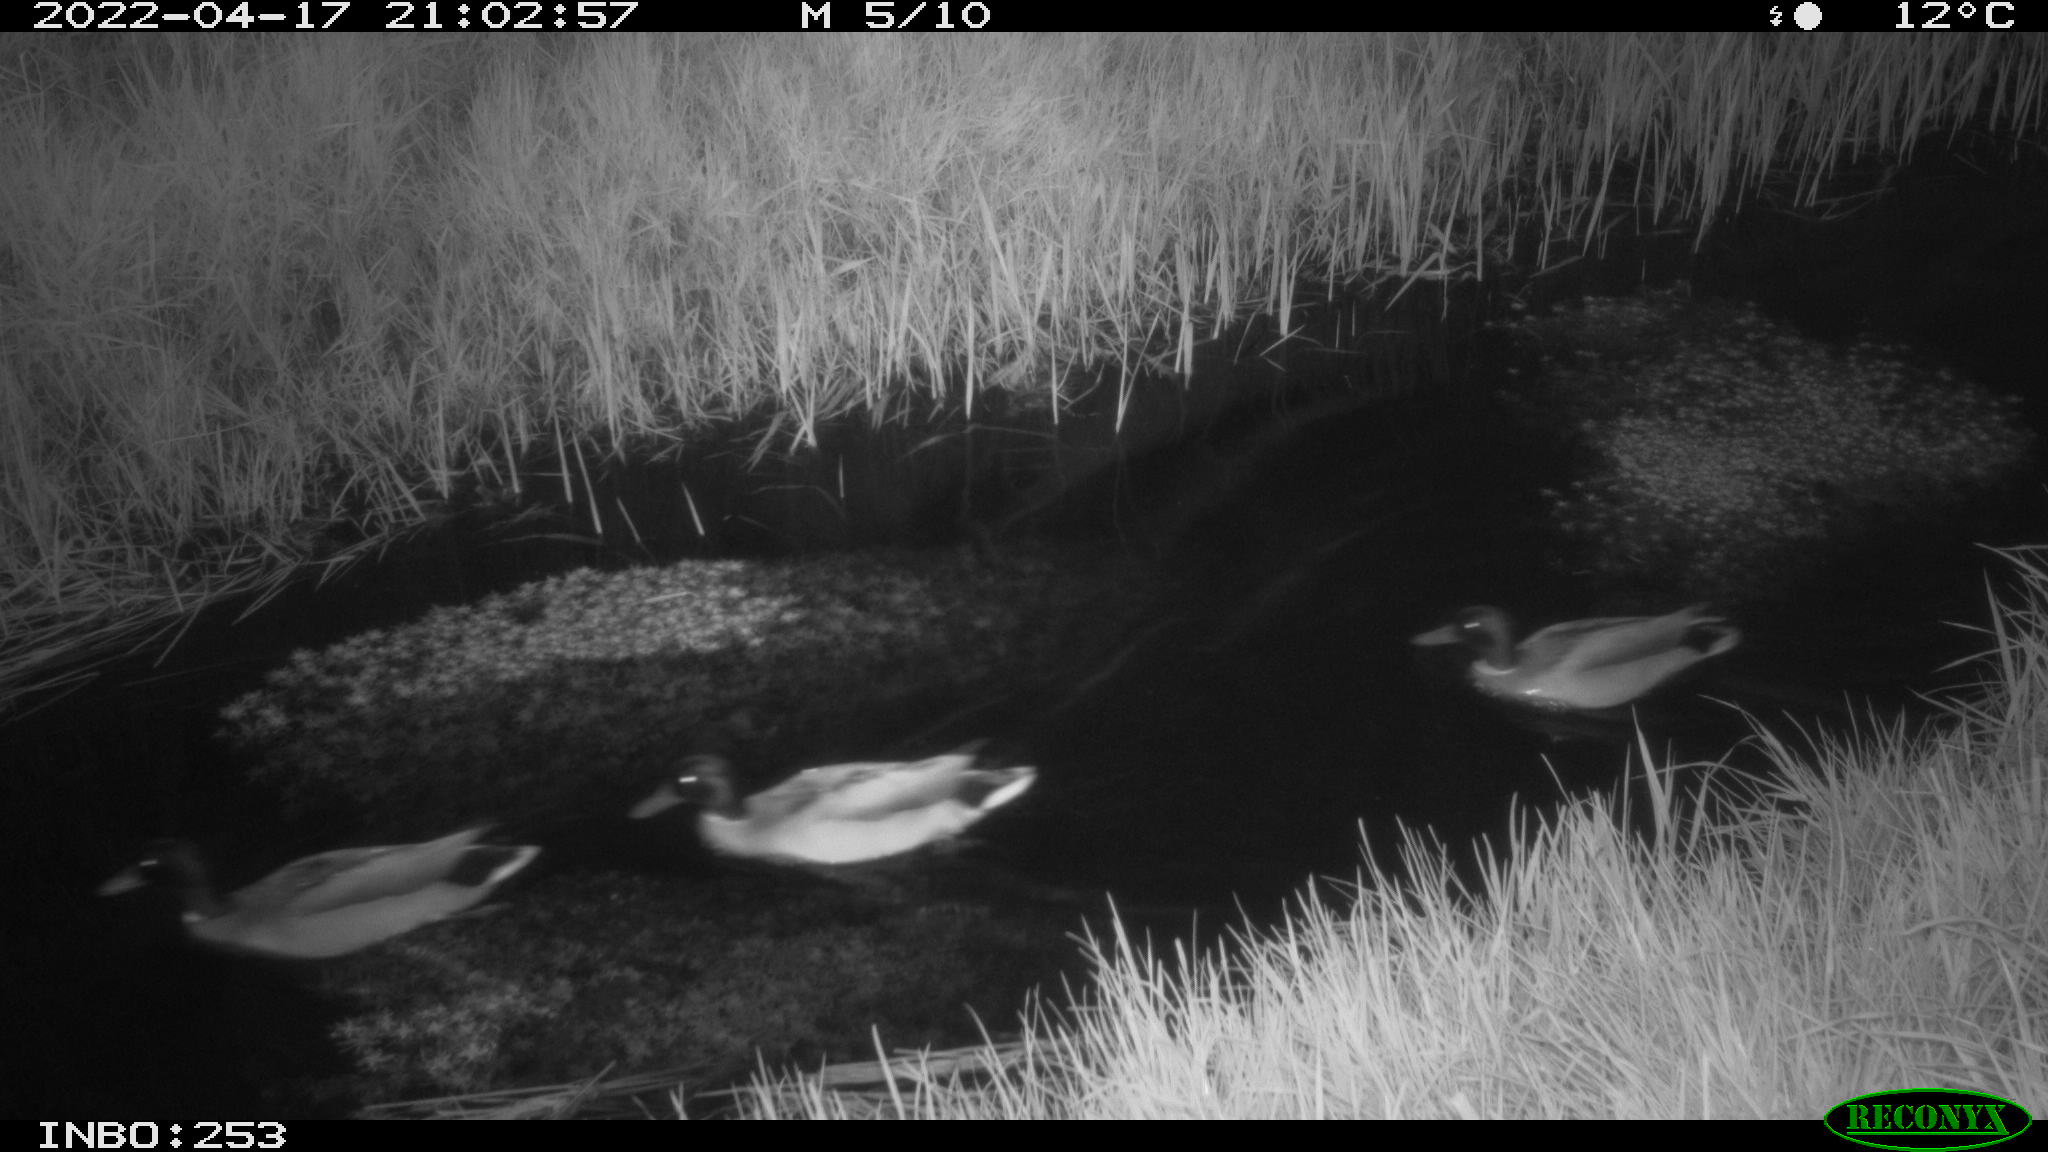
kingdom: Animalia
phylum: Chordata
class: Aves
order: Anseriformes
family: Anatidae
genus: Anas
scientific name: Anas platyrhynchos
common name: Mallard
